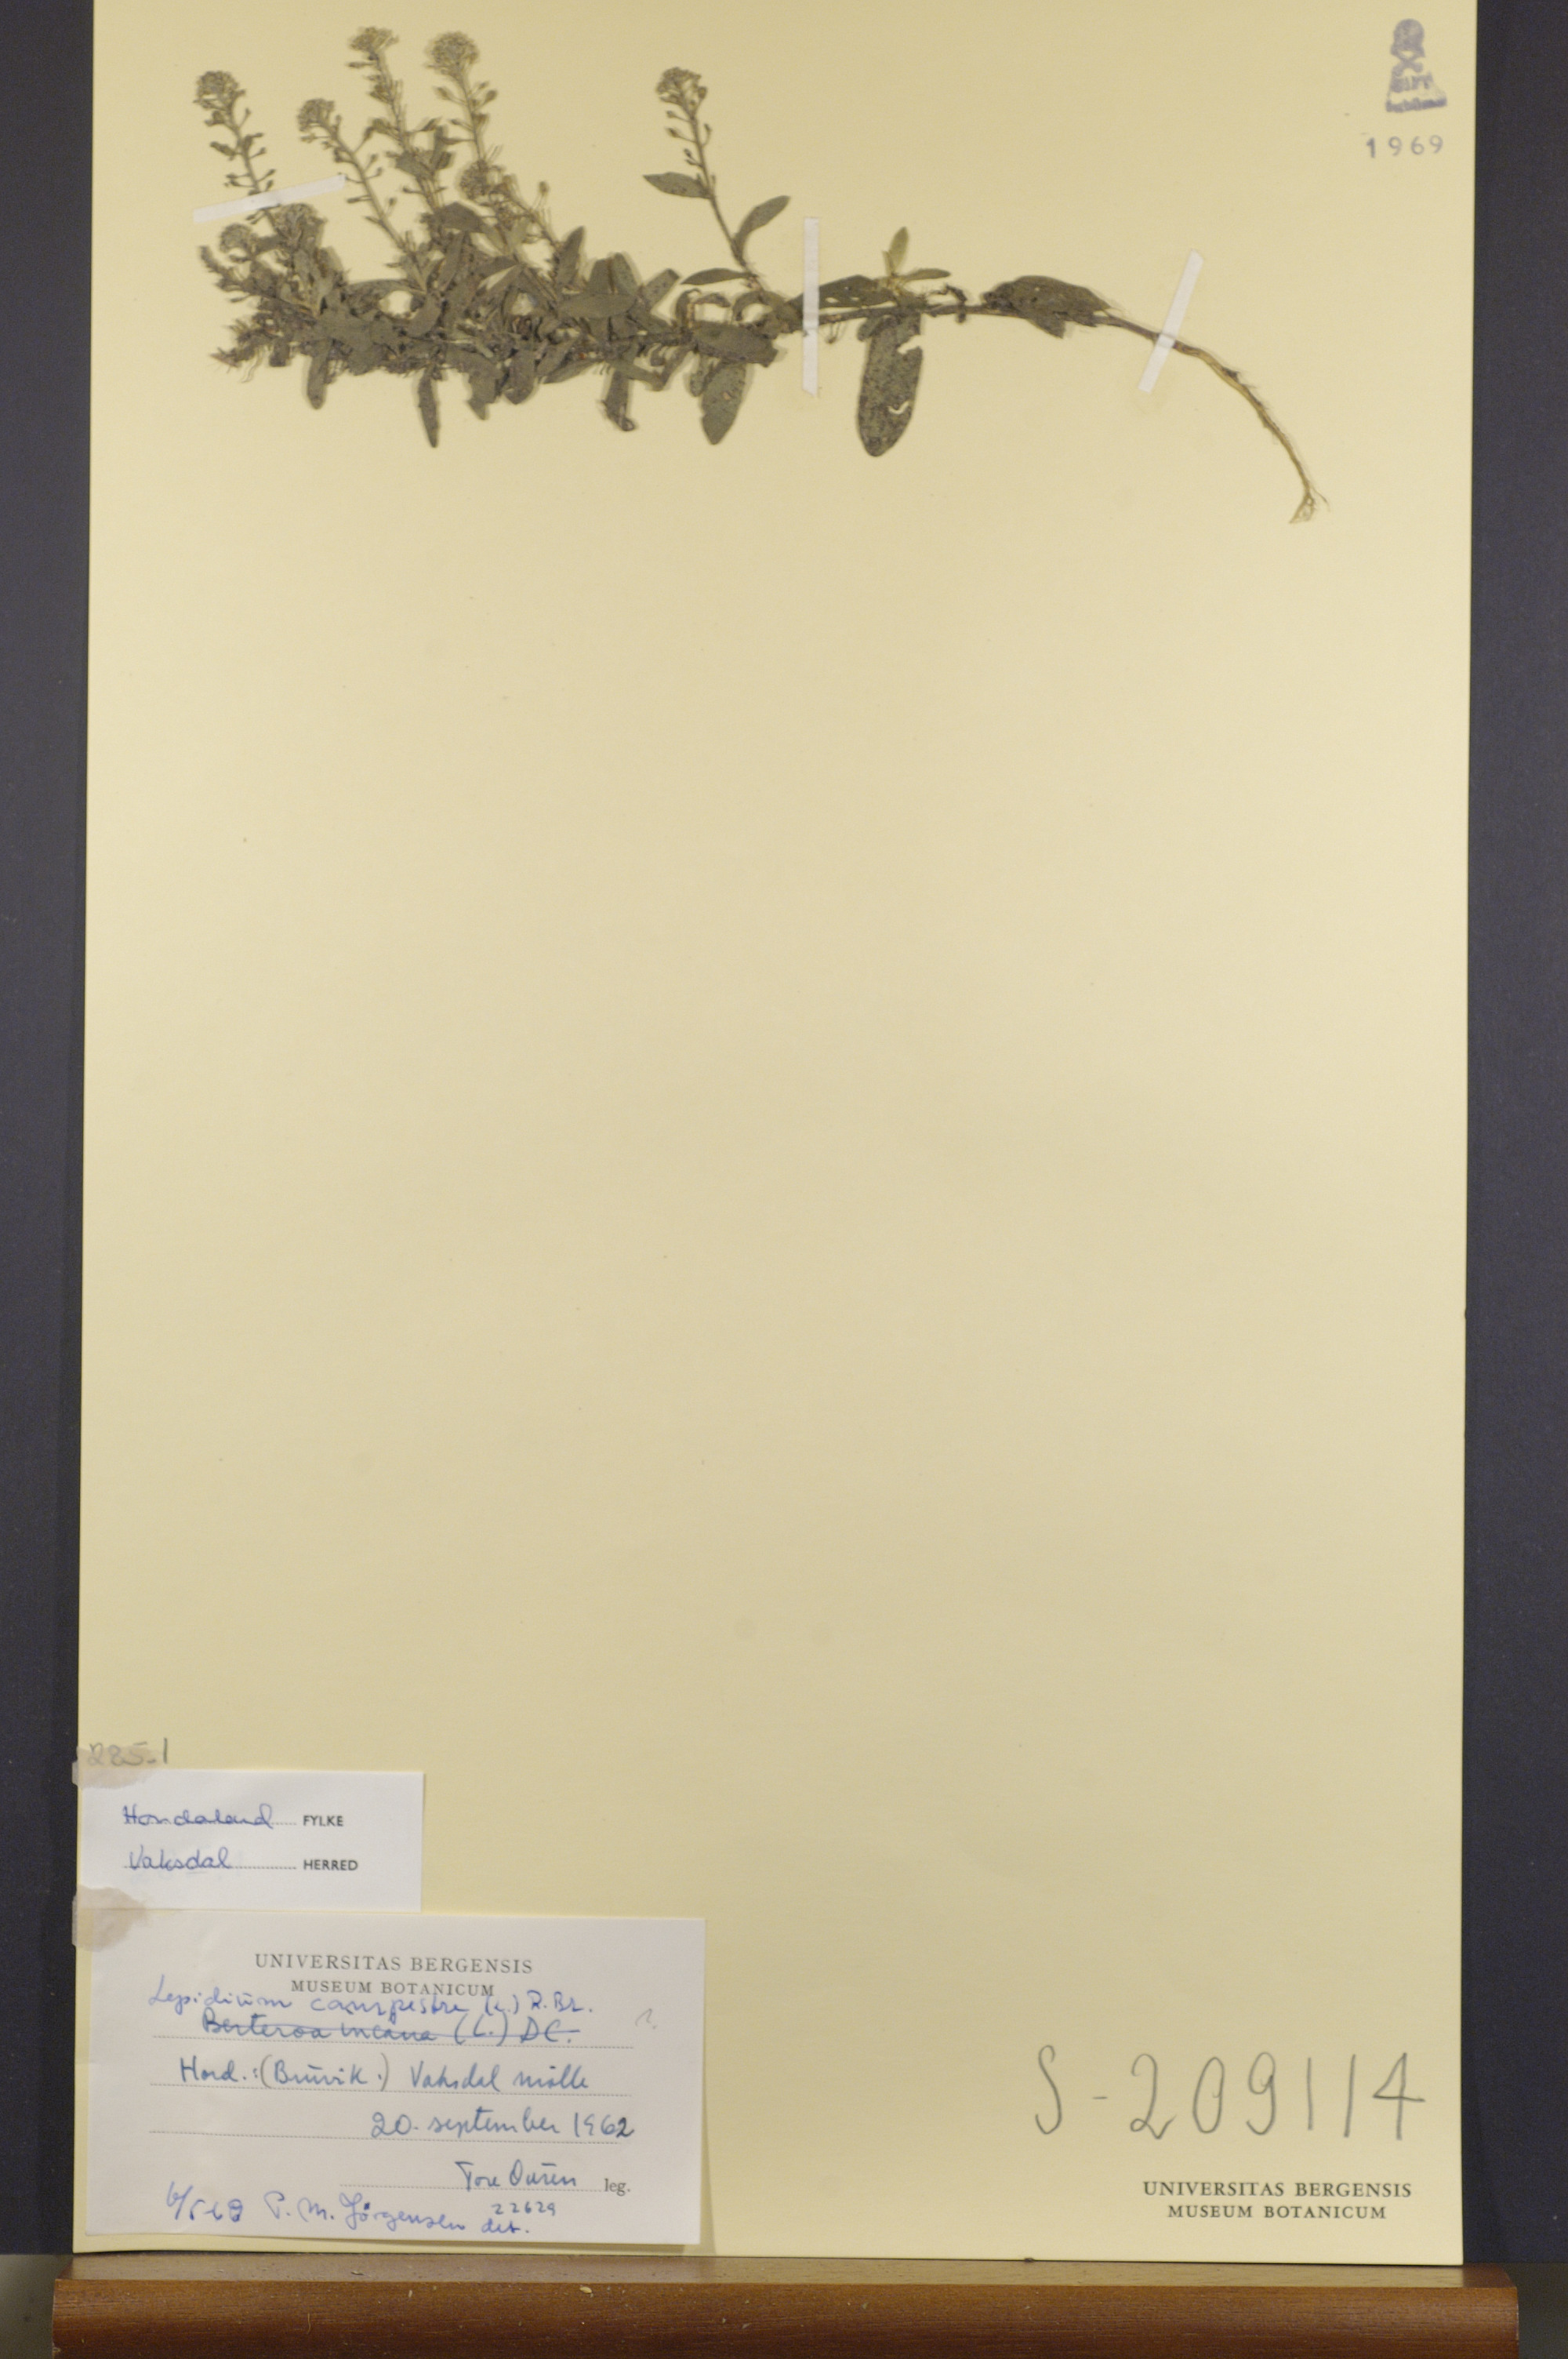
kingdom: Plantae
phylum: Tracheophyta
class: Magnoliopsida
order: Brassicales
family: Brassicaceae
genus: Lepidium
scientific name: Lepidium campestre
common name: Field pepperwort
